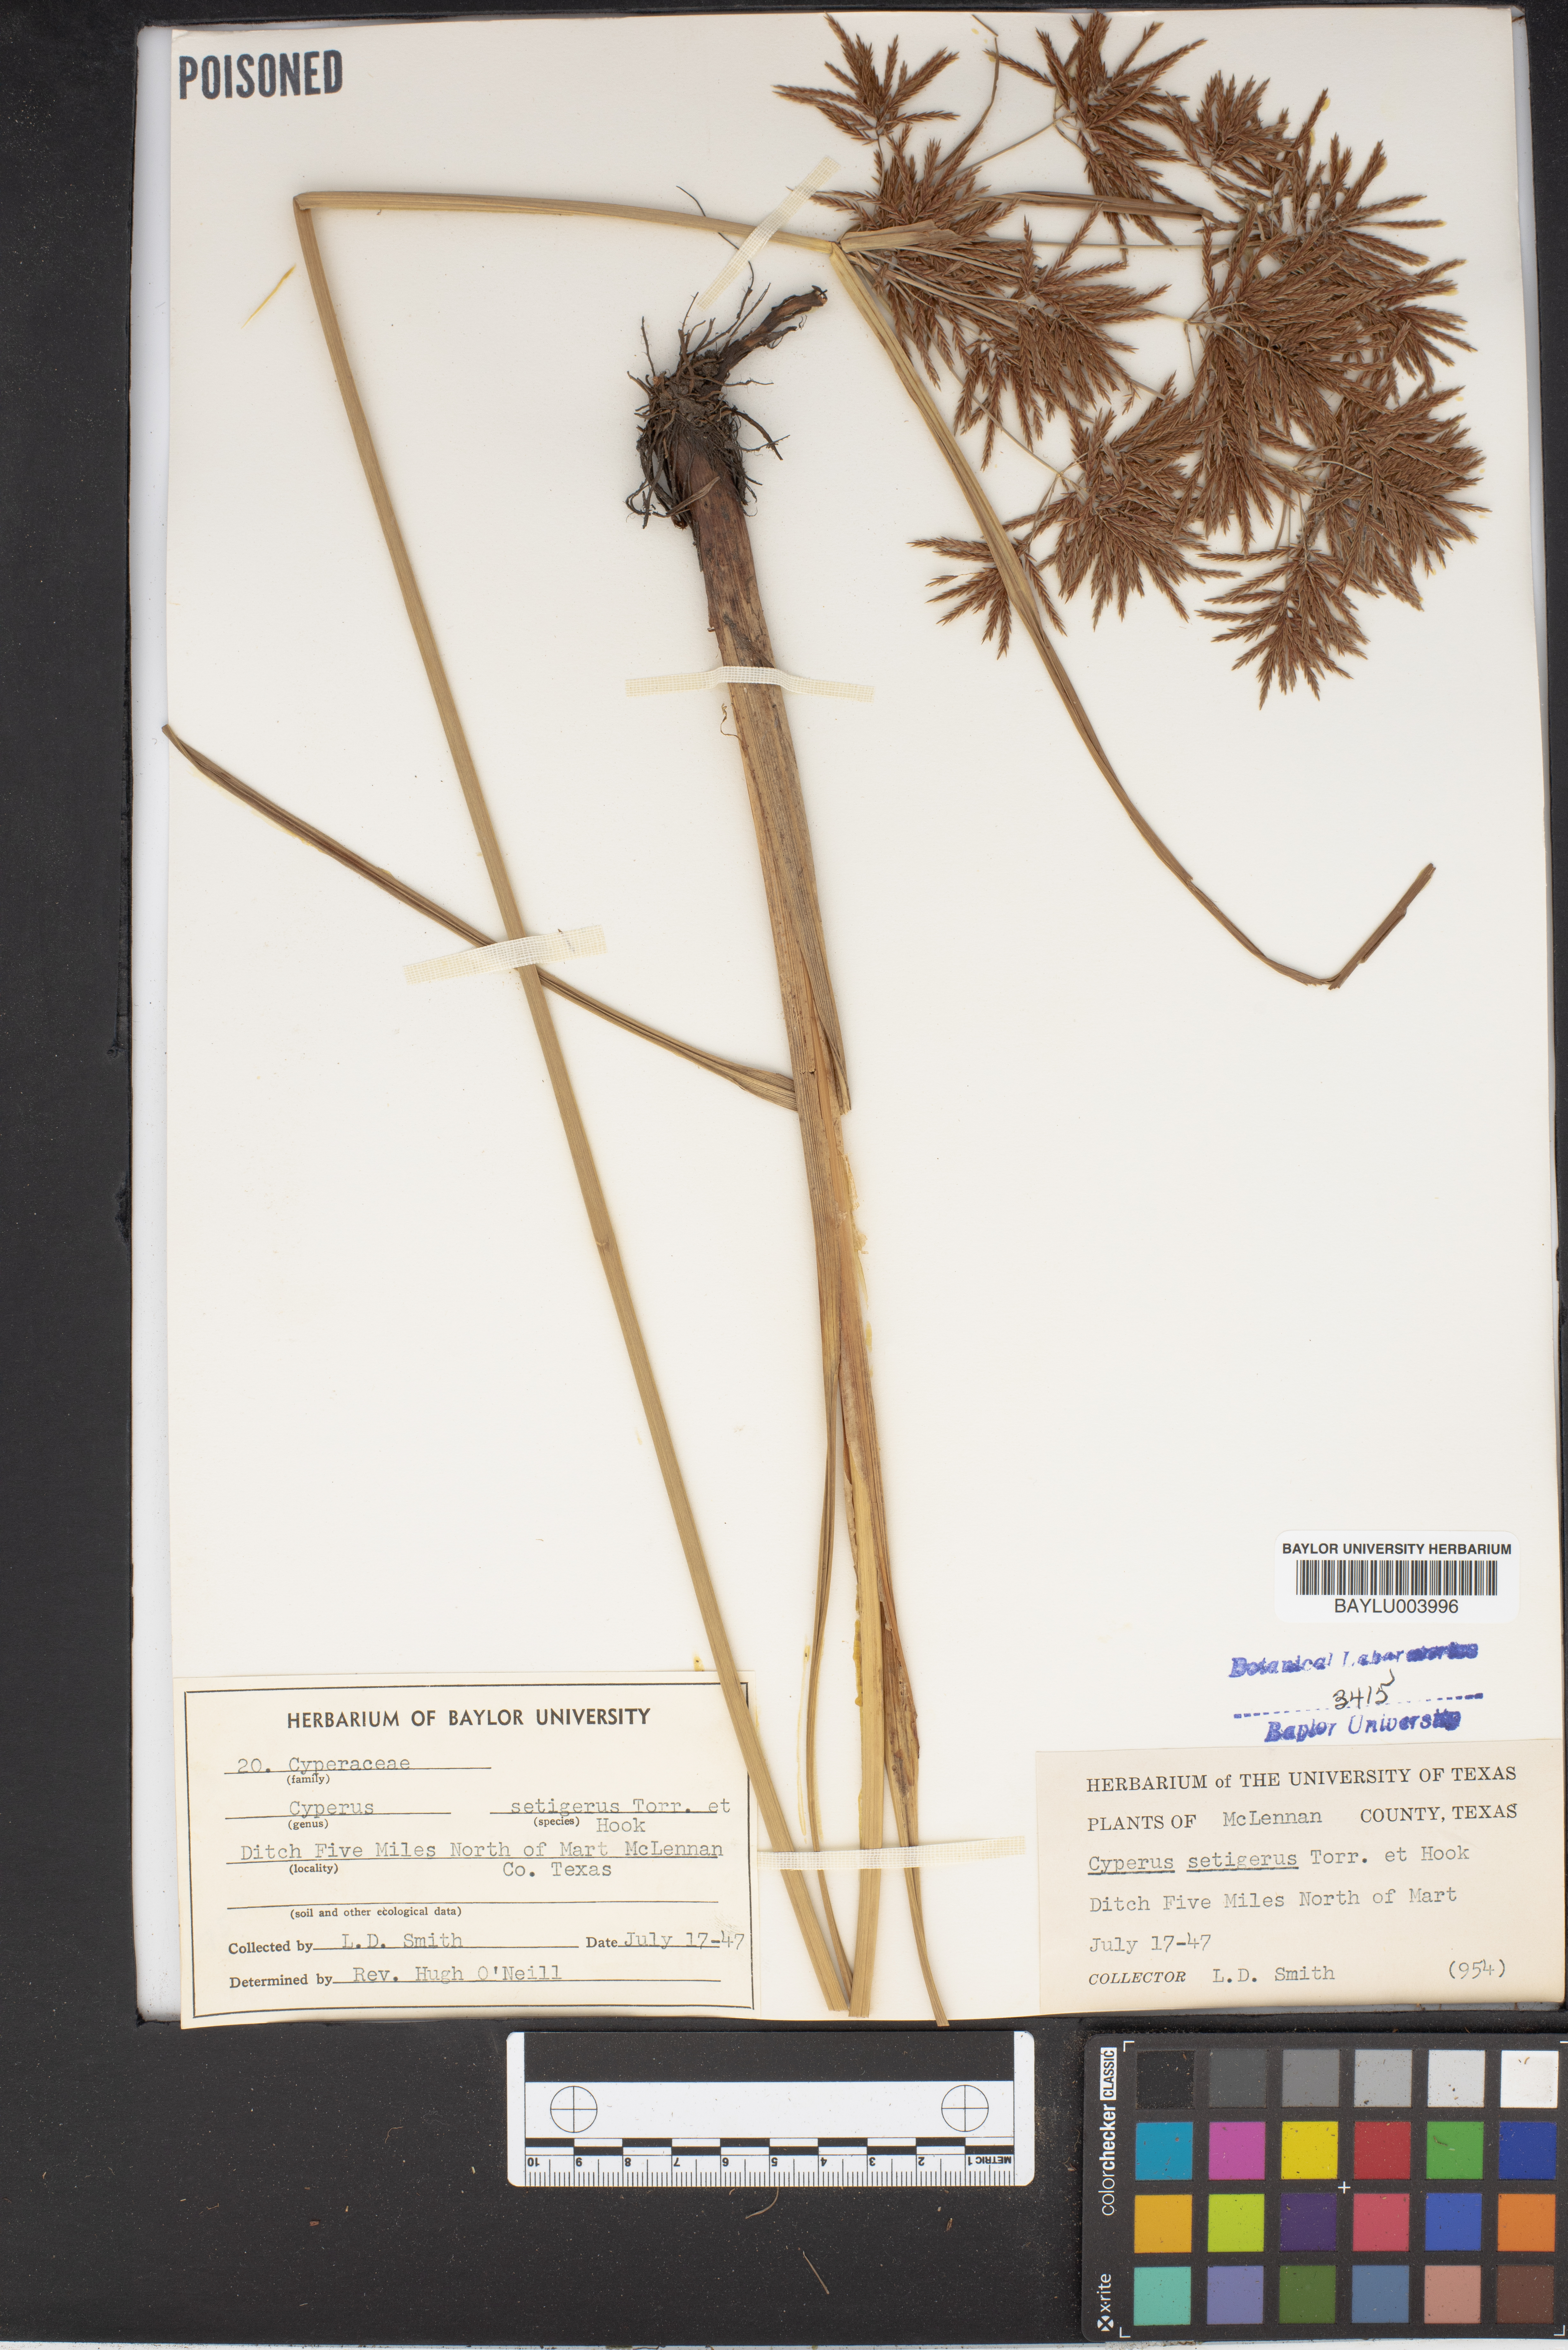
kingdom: Plantae
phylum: Tracheophyta
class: Liliopsida
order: Poales
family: Cyperaceae
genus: Cyperus
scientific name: Cyperus setigerus
